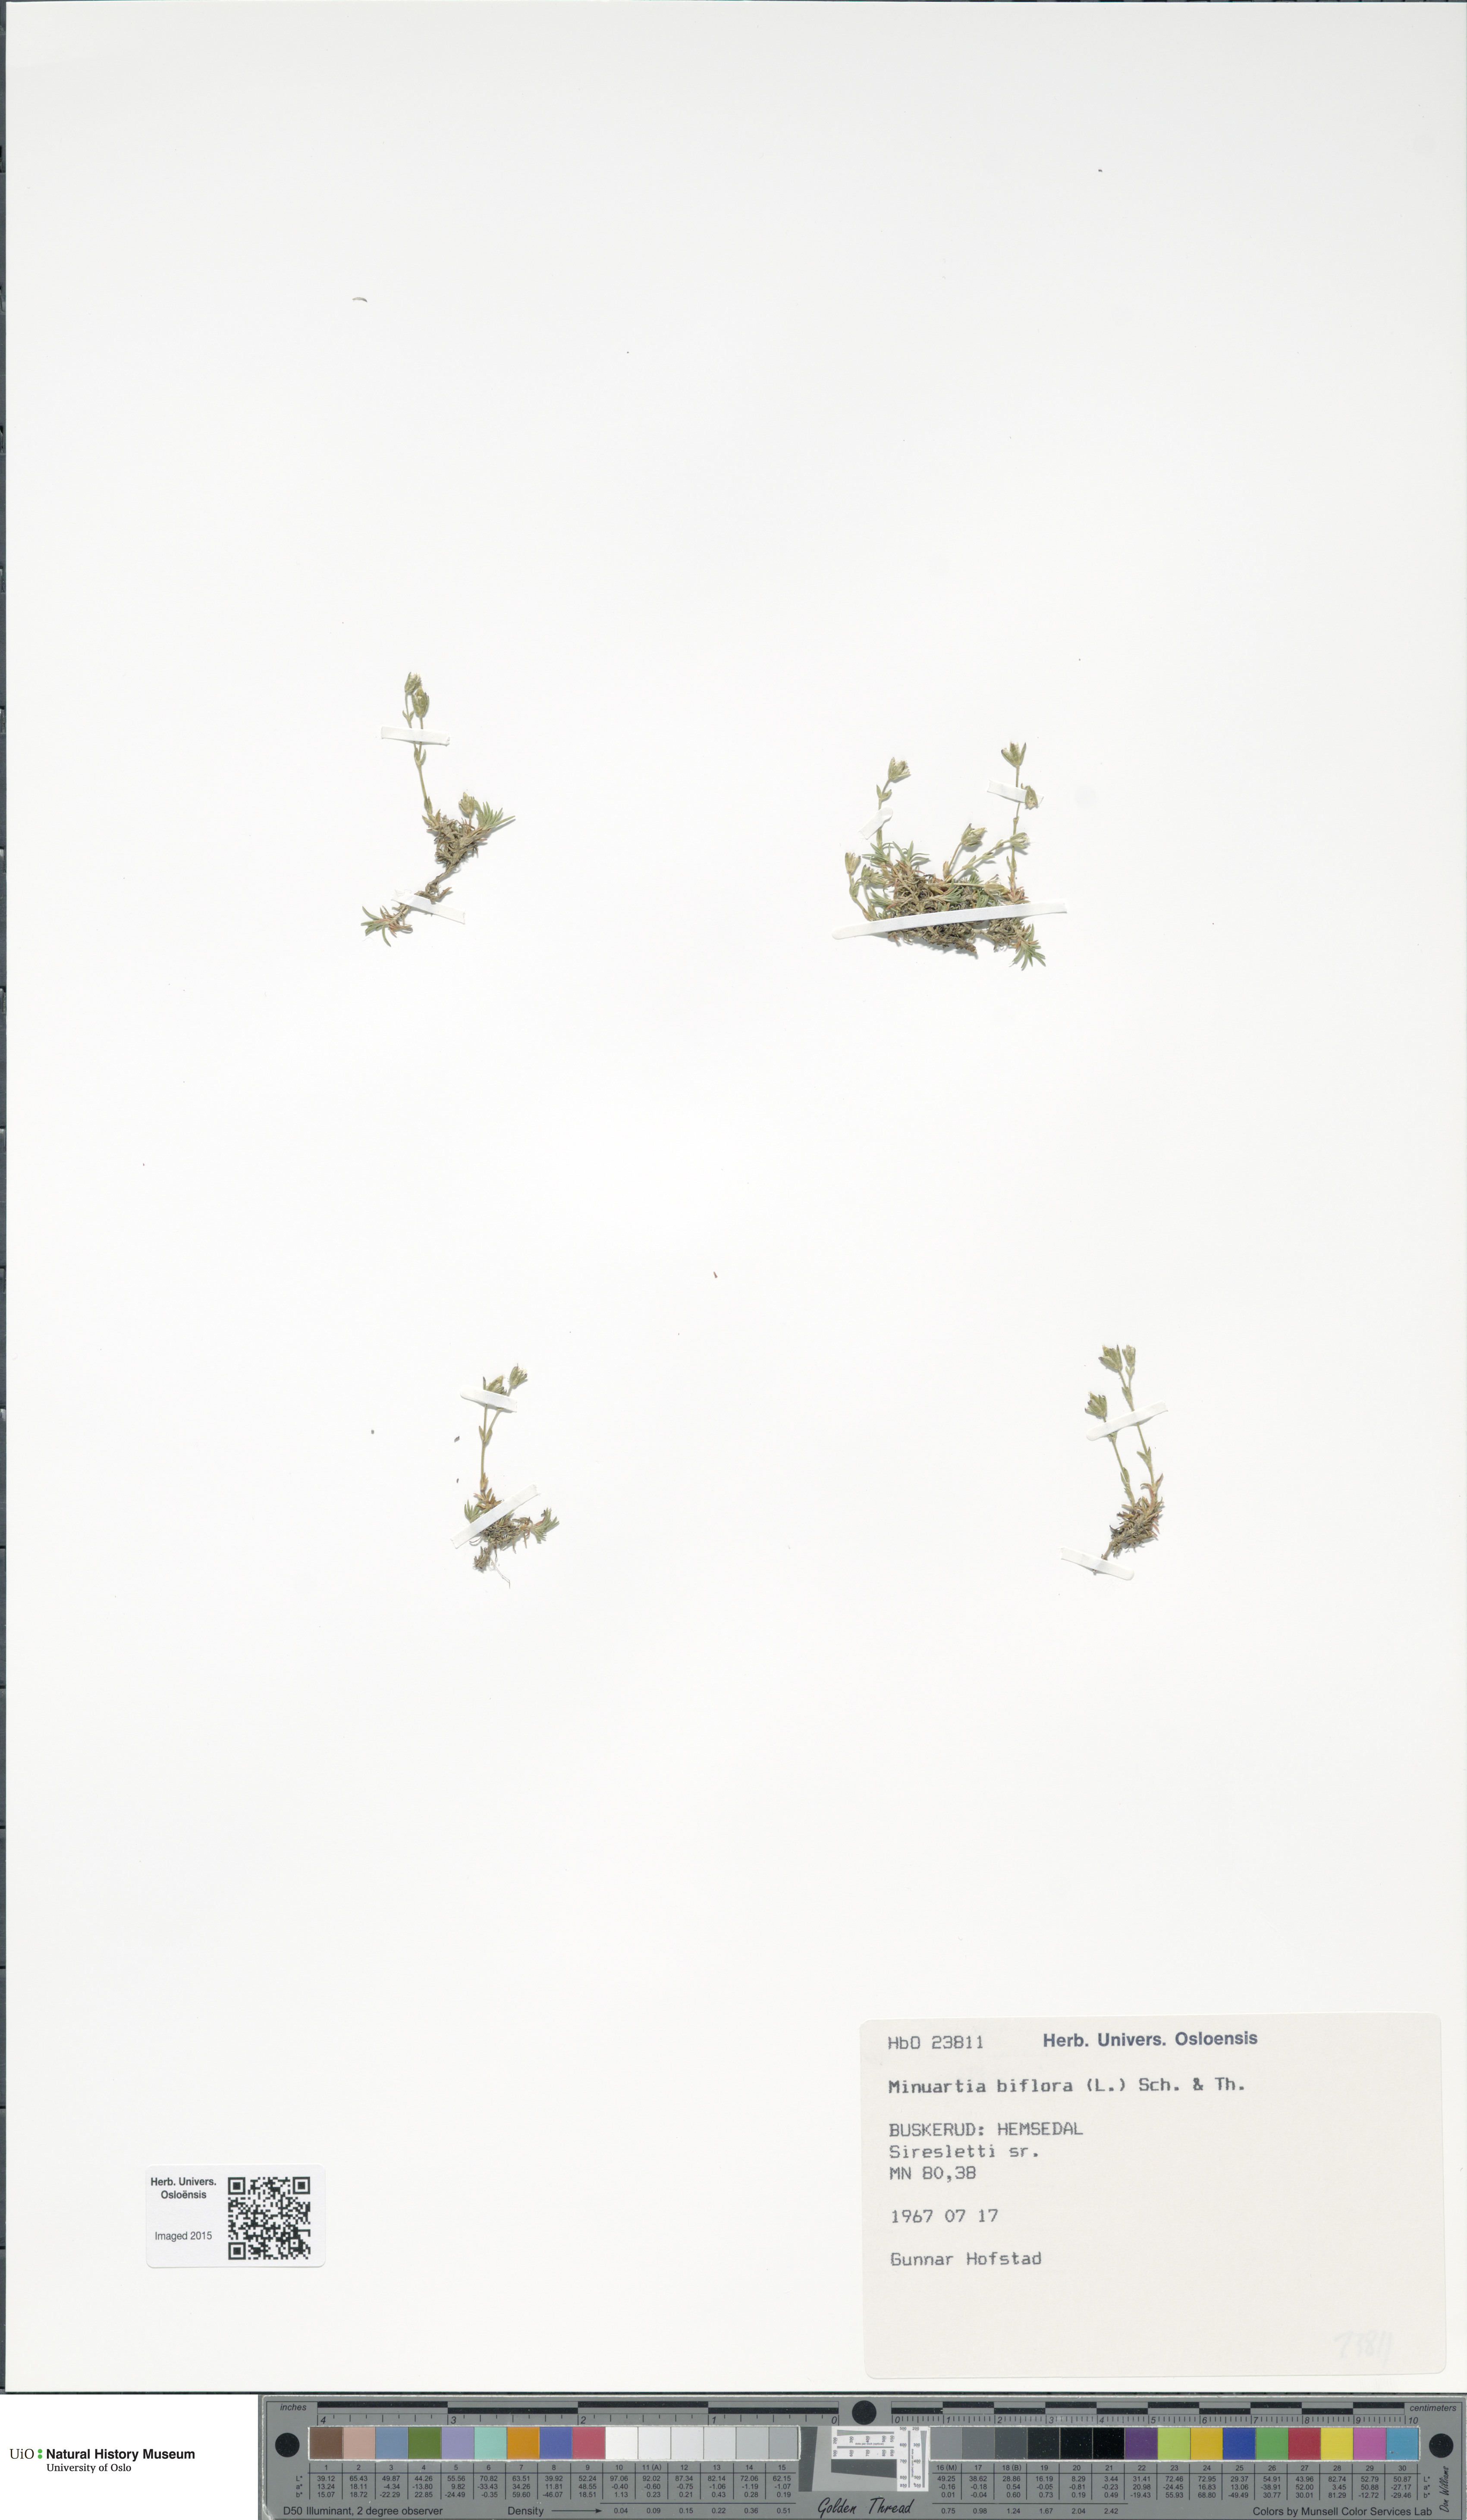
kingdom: Plantae
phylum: Tracheophyta
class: Magnoliopsida
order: Caryophyllales
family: Caryophyllaceae
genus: Cherleria
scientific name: Cherleria biflora
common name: Mountain sandwort
